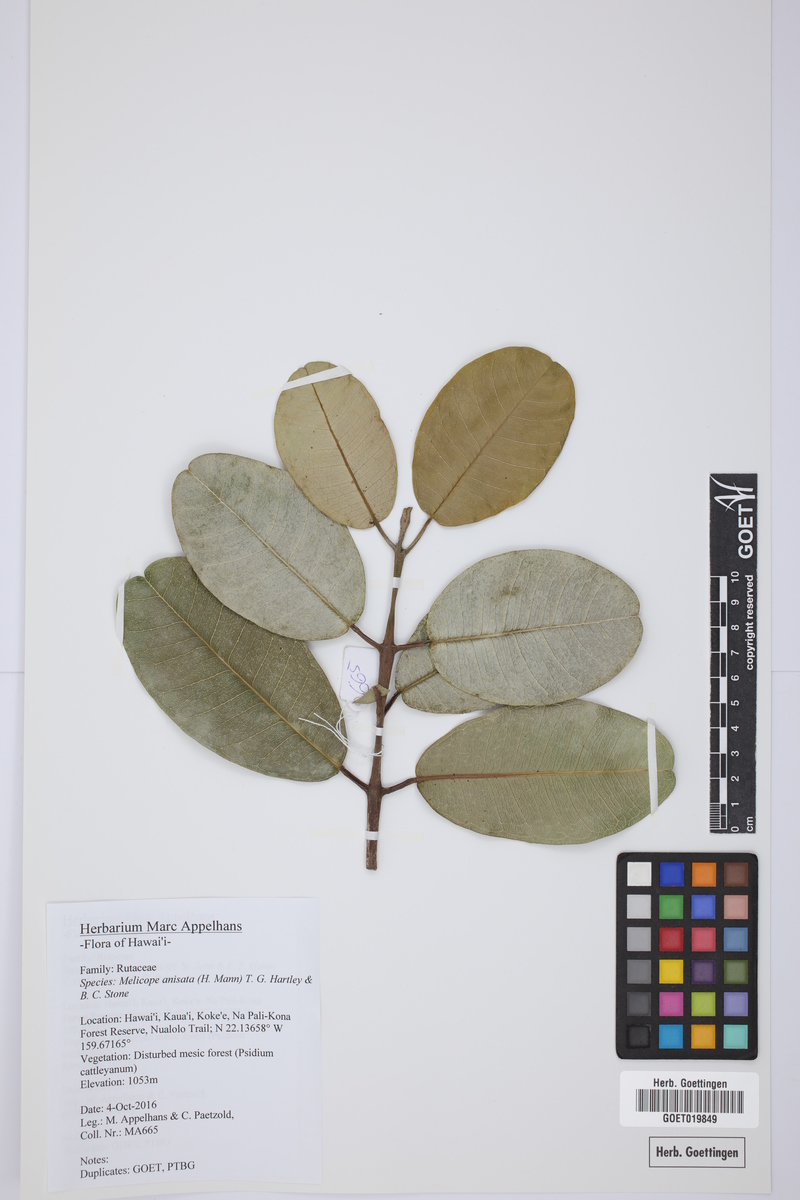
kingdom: Plantae
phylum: Tracheophyta
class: Magnoliopsida
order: Sapindales
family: Rutaceae
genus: Melicope
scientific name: Melicope anisata
